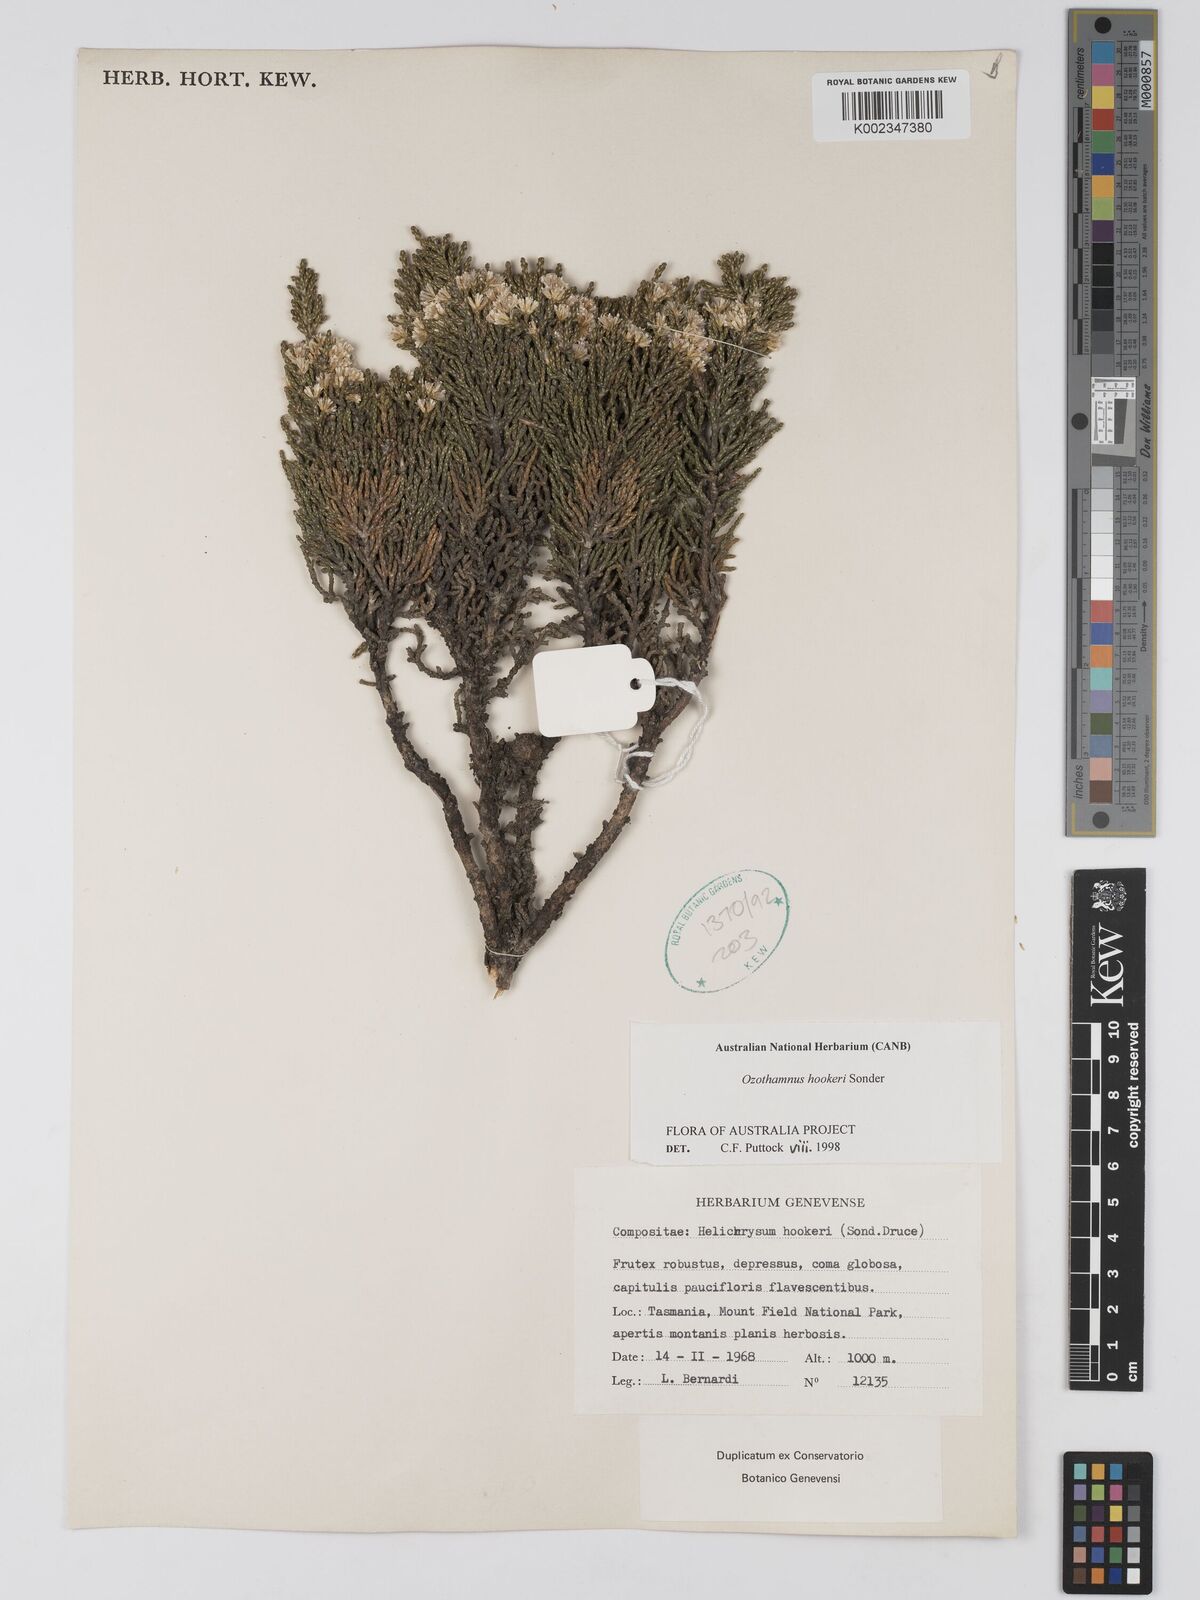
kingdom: Plantae
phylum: Tracheophyta
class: Magnoliopsida
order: Asterales
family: Asteraceae
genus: Ozothamnus
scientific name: Ozothamnus hookeri
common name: Kerosene-bush
